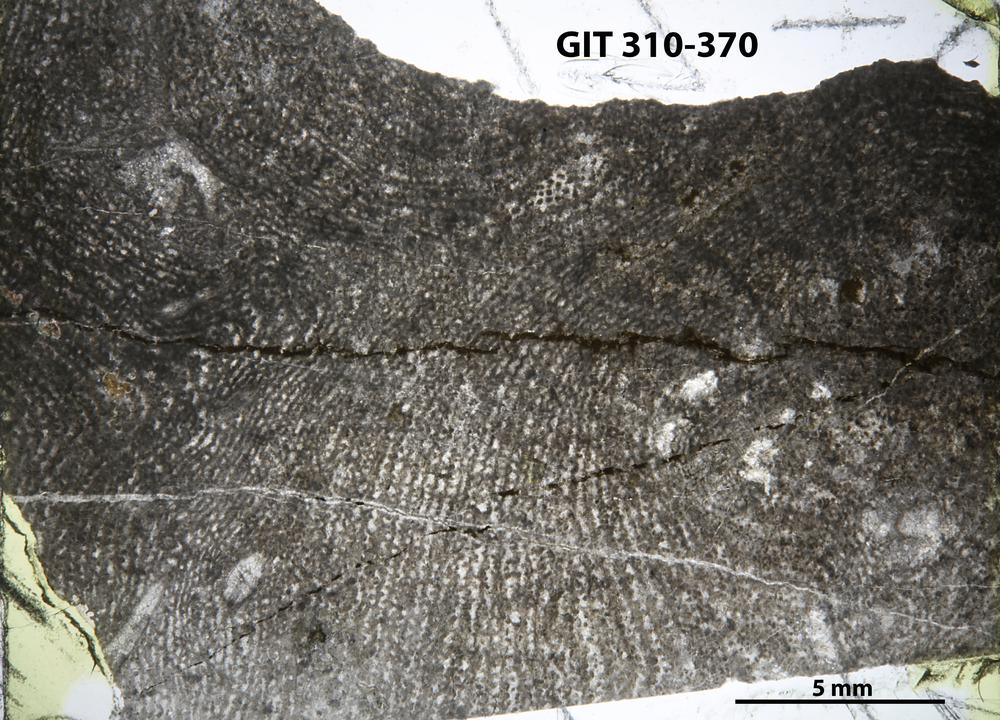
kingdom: Animalia
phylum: Porifera
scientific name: Porifera
